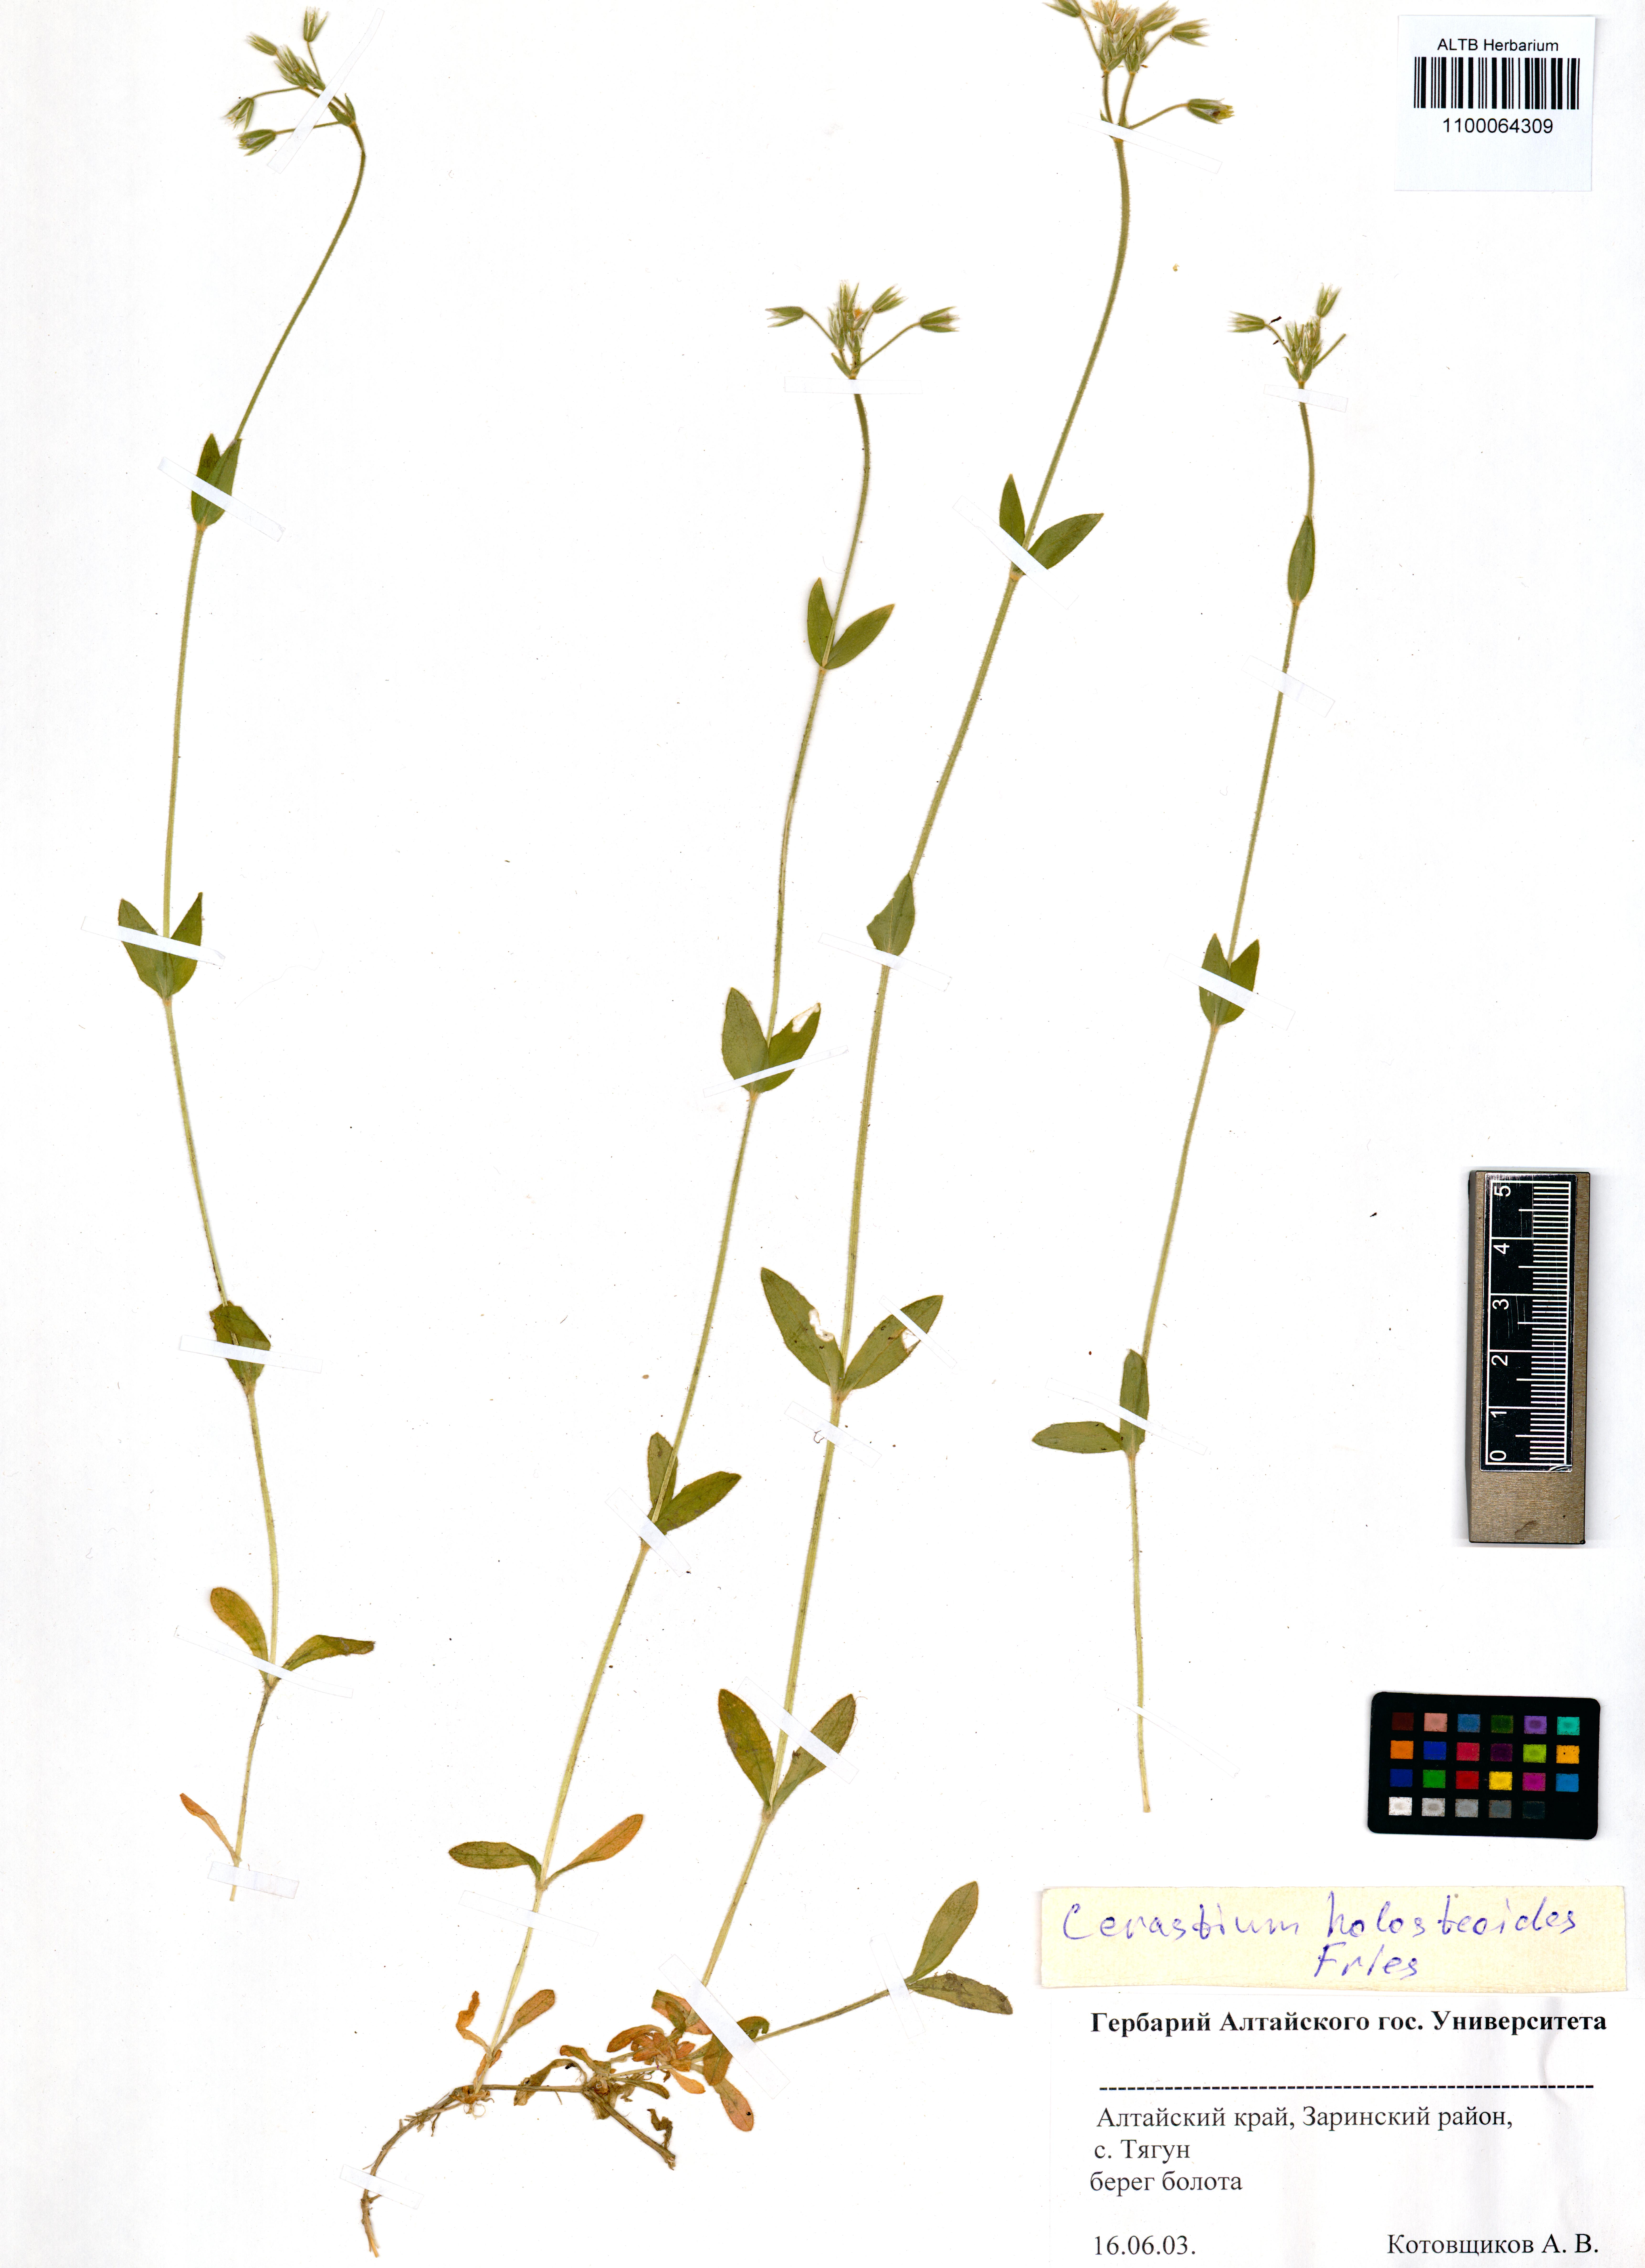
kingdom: Plantae
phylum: Tracheophyta
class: Magnoliopsida
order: Caryophyllales
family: Caryophyllaceae
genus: Cerastium
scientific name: Cerastium holosteoides
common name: Big chickweed
